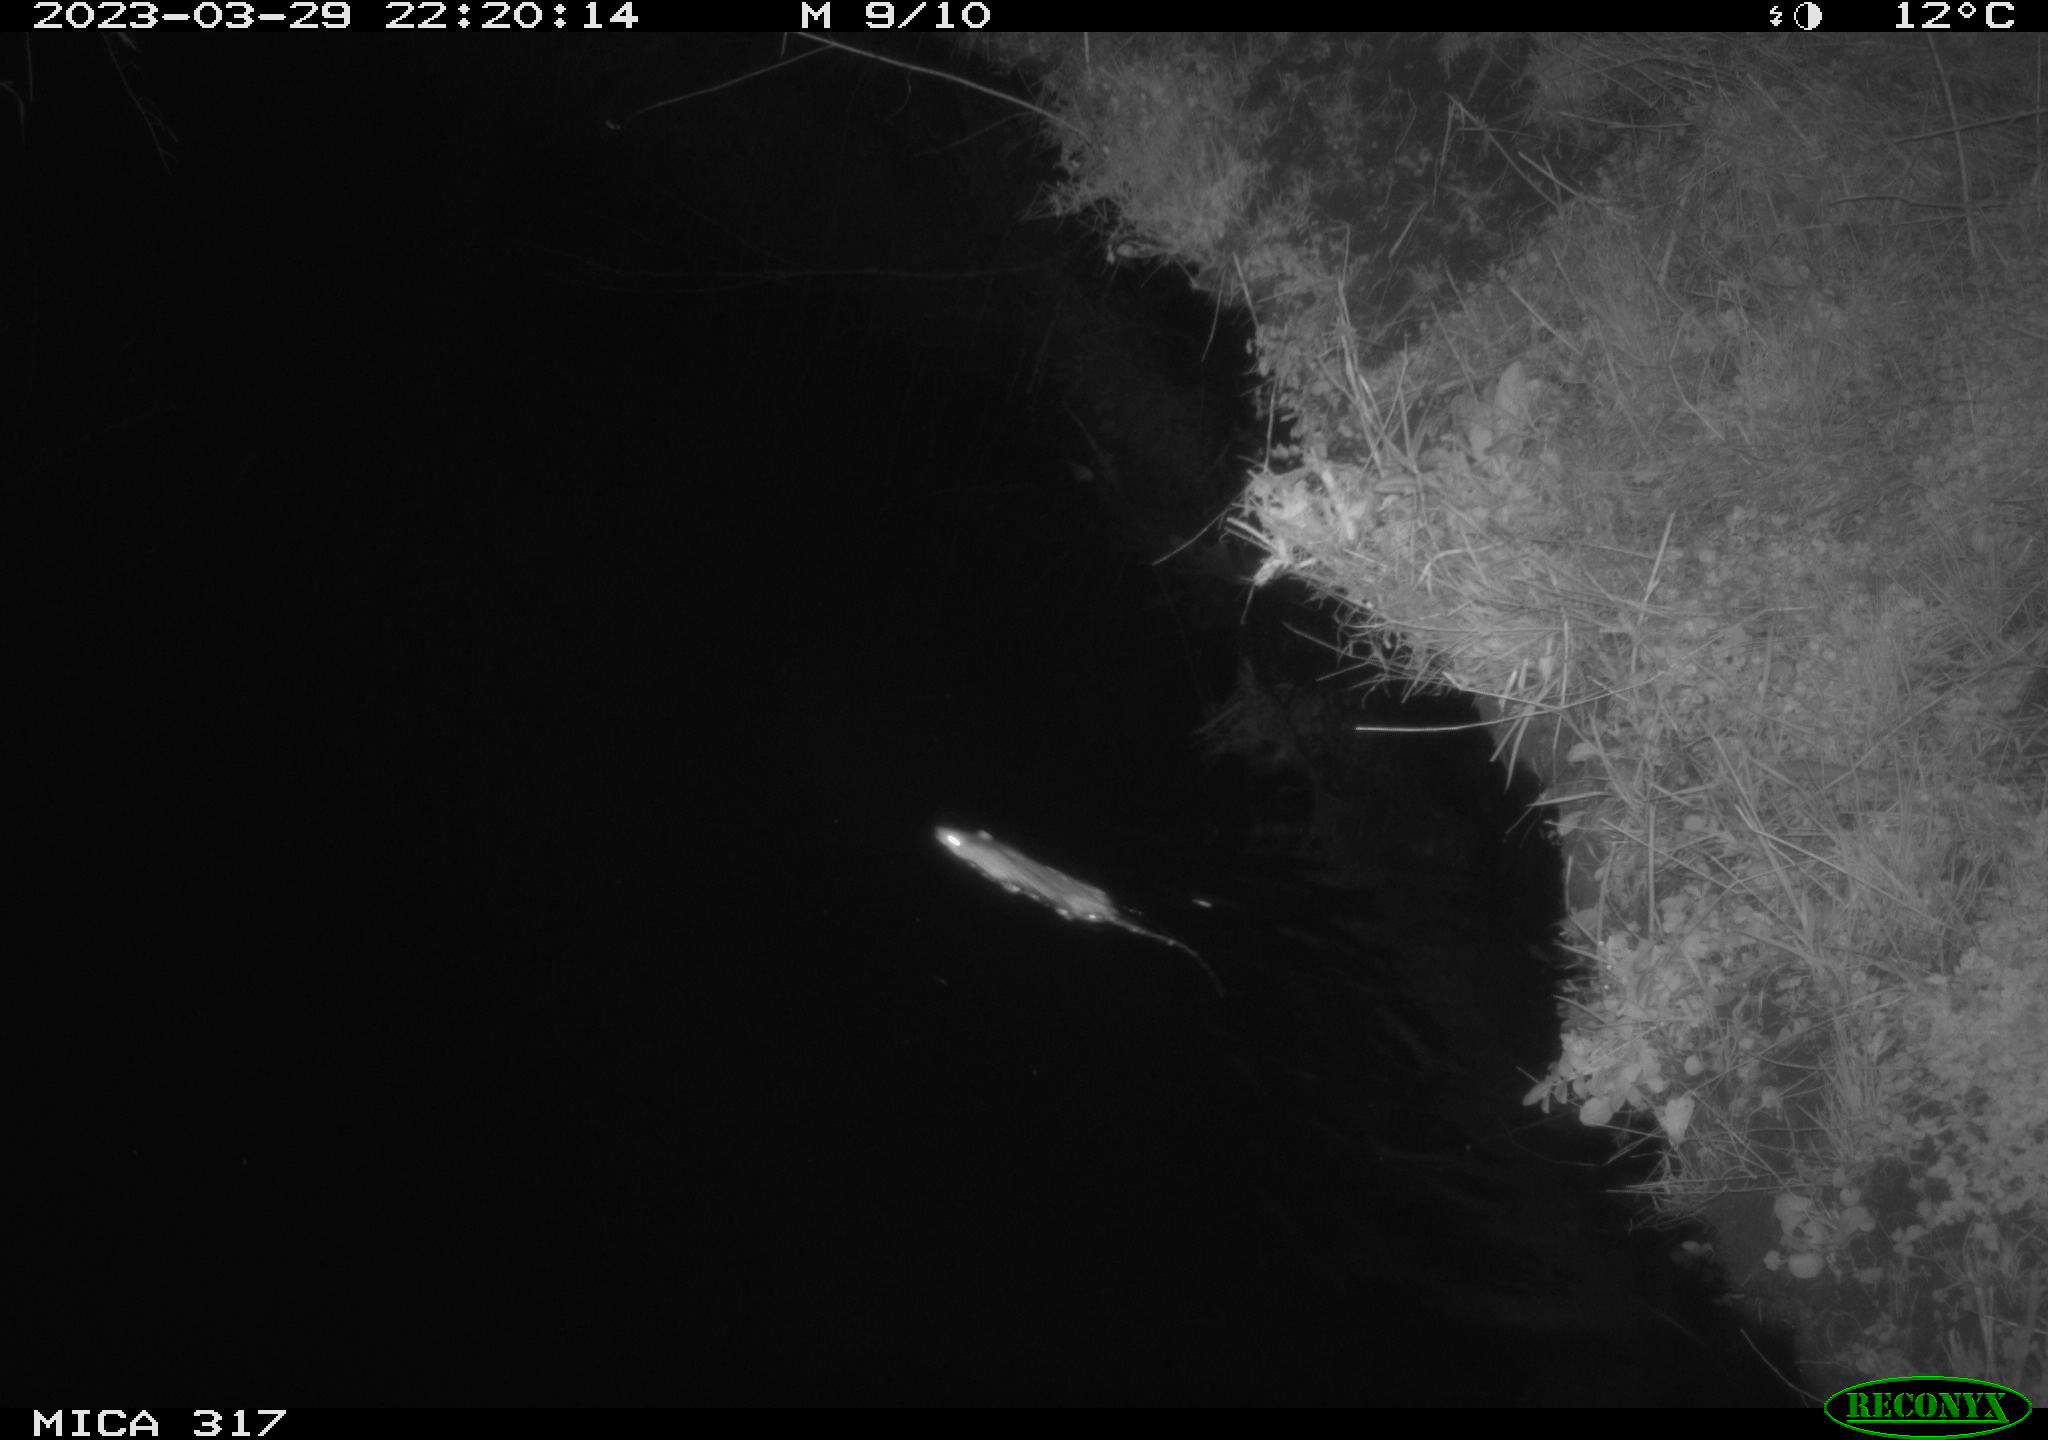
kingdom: Animalia
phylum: Chordata
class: Mammalia
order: Rodentia
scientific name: Rodentia
